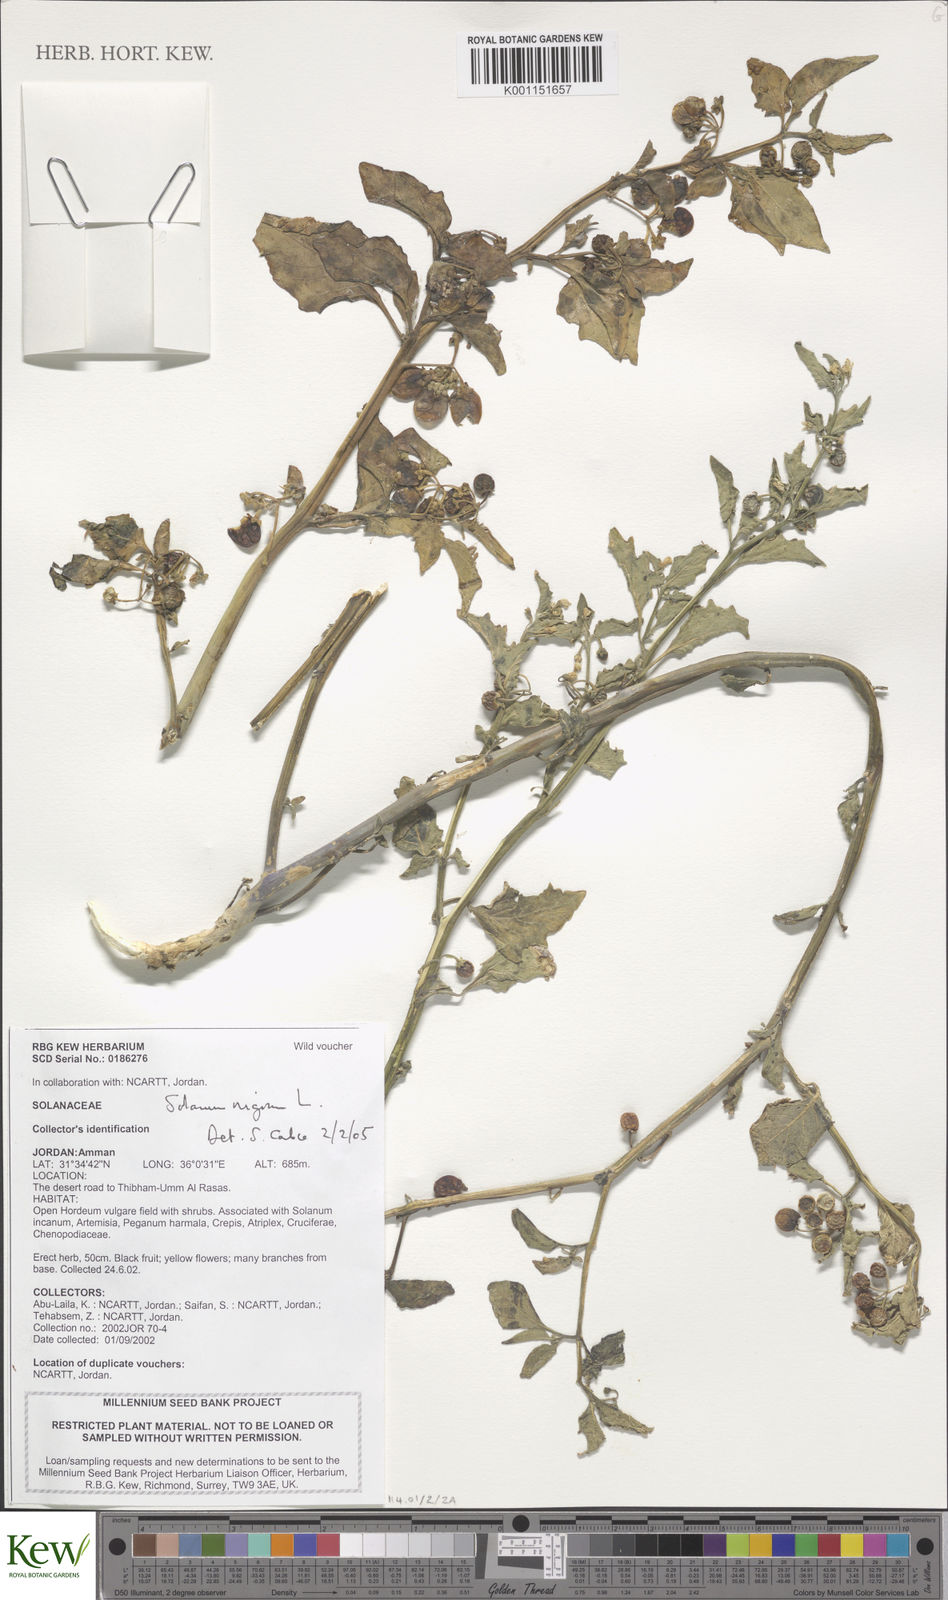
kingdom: Plantae
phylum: Tracheophyta
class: Magnoliopsida
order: Solanales
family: Solanaceae
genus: Solanum
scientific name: Solanum nigrum
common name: Black nightshade
